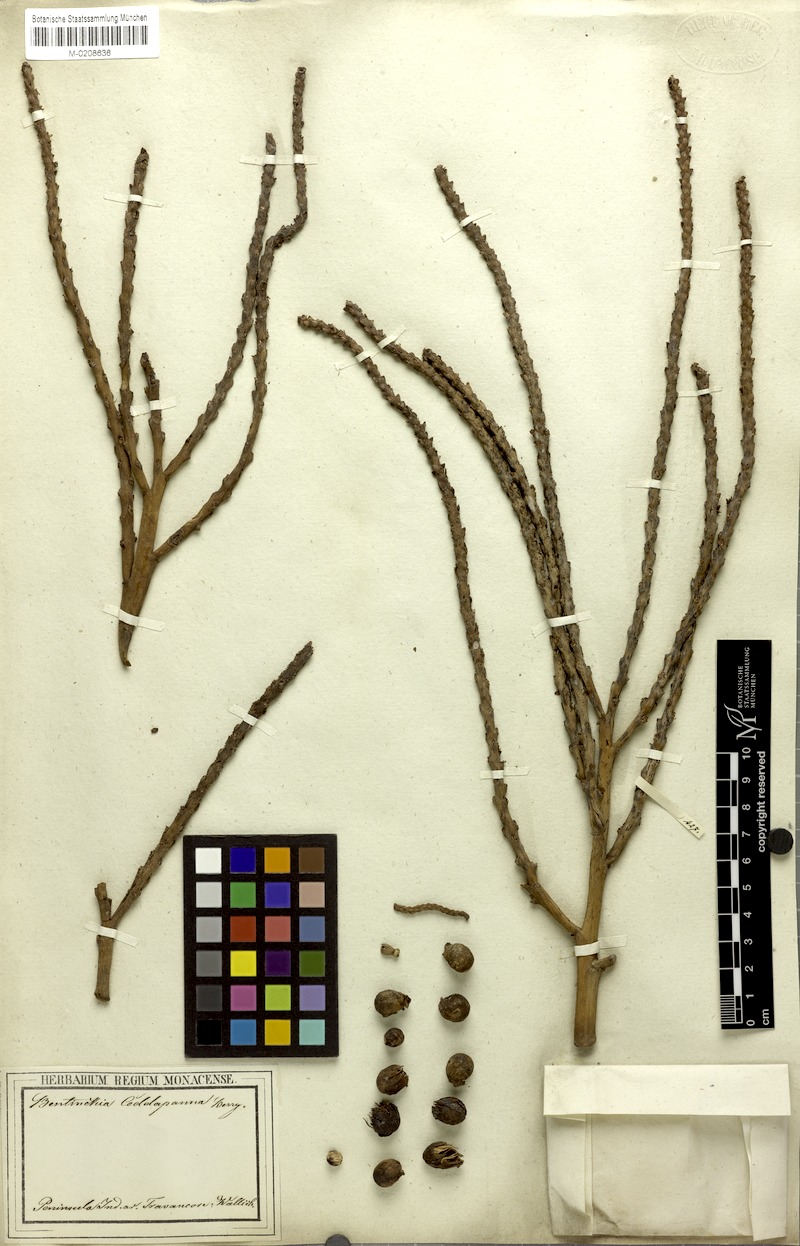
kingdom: Plantae
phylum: Tracheophyta
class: Liliopsida
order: Arecales
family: Arecaceae
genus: Bentinckia
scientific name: Bentinckia condapanna
